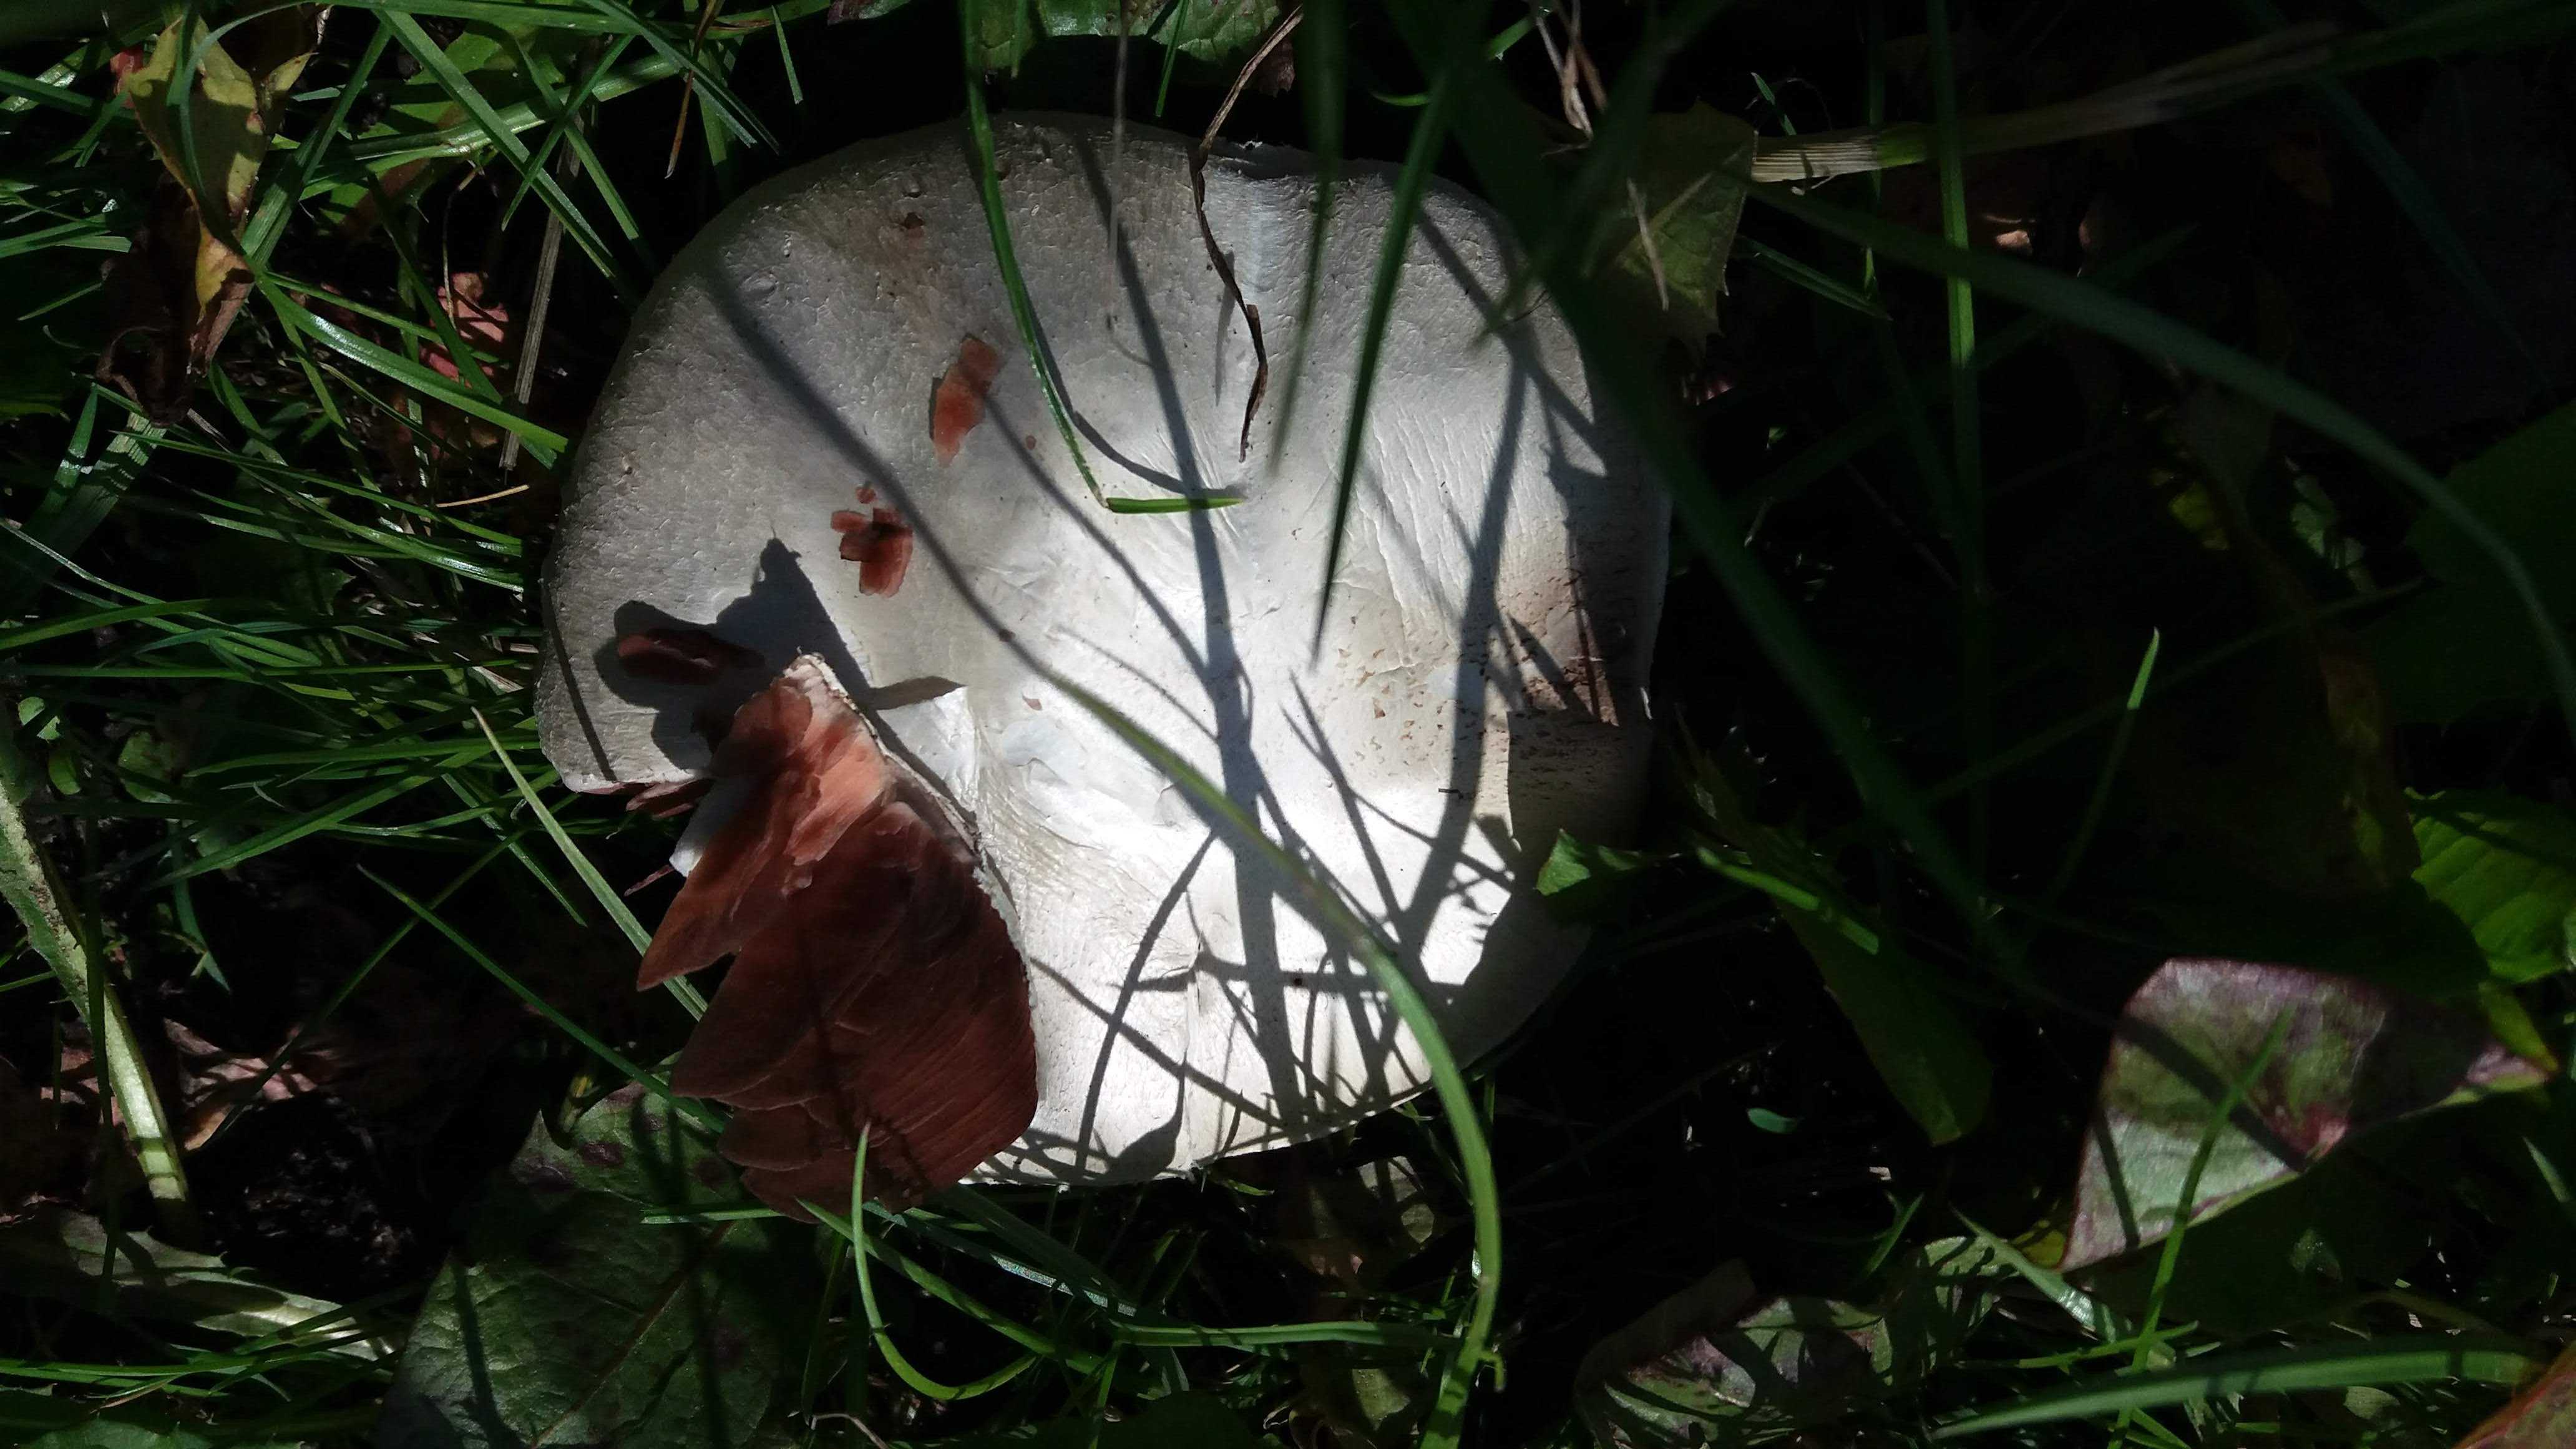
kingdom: Fungi
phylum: Basidiomycota
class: Agaricomycetes
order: Agaricales
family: Agaricaceae
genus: Agaricus
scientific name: Agaricus
